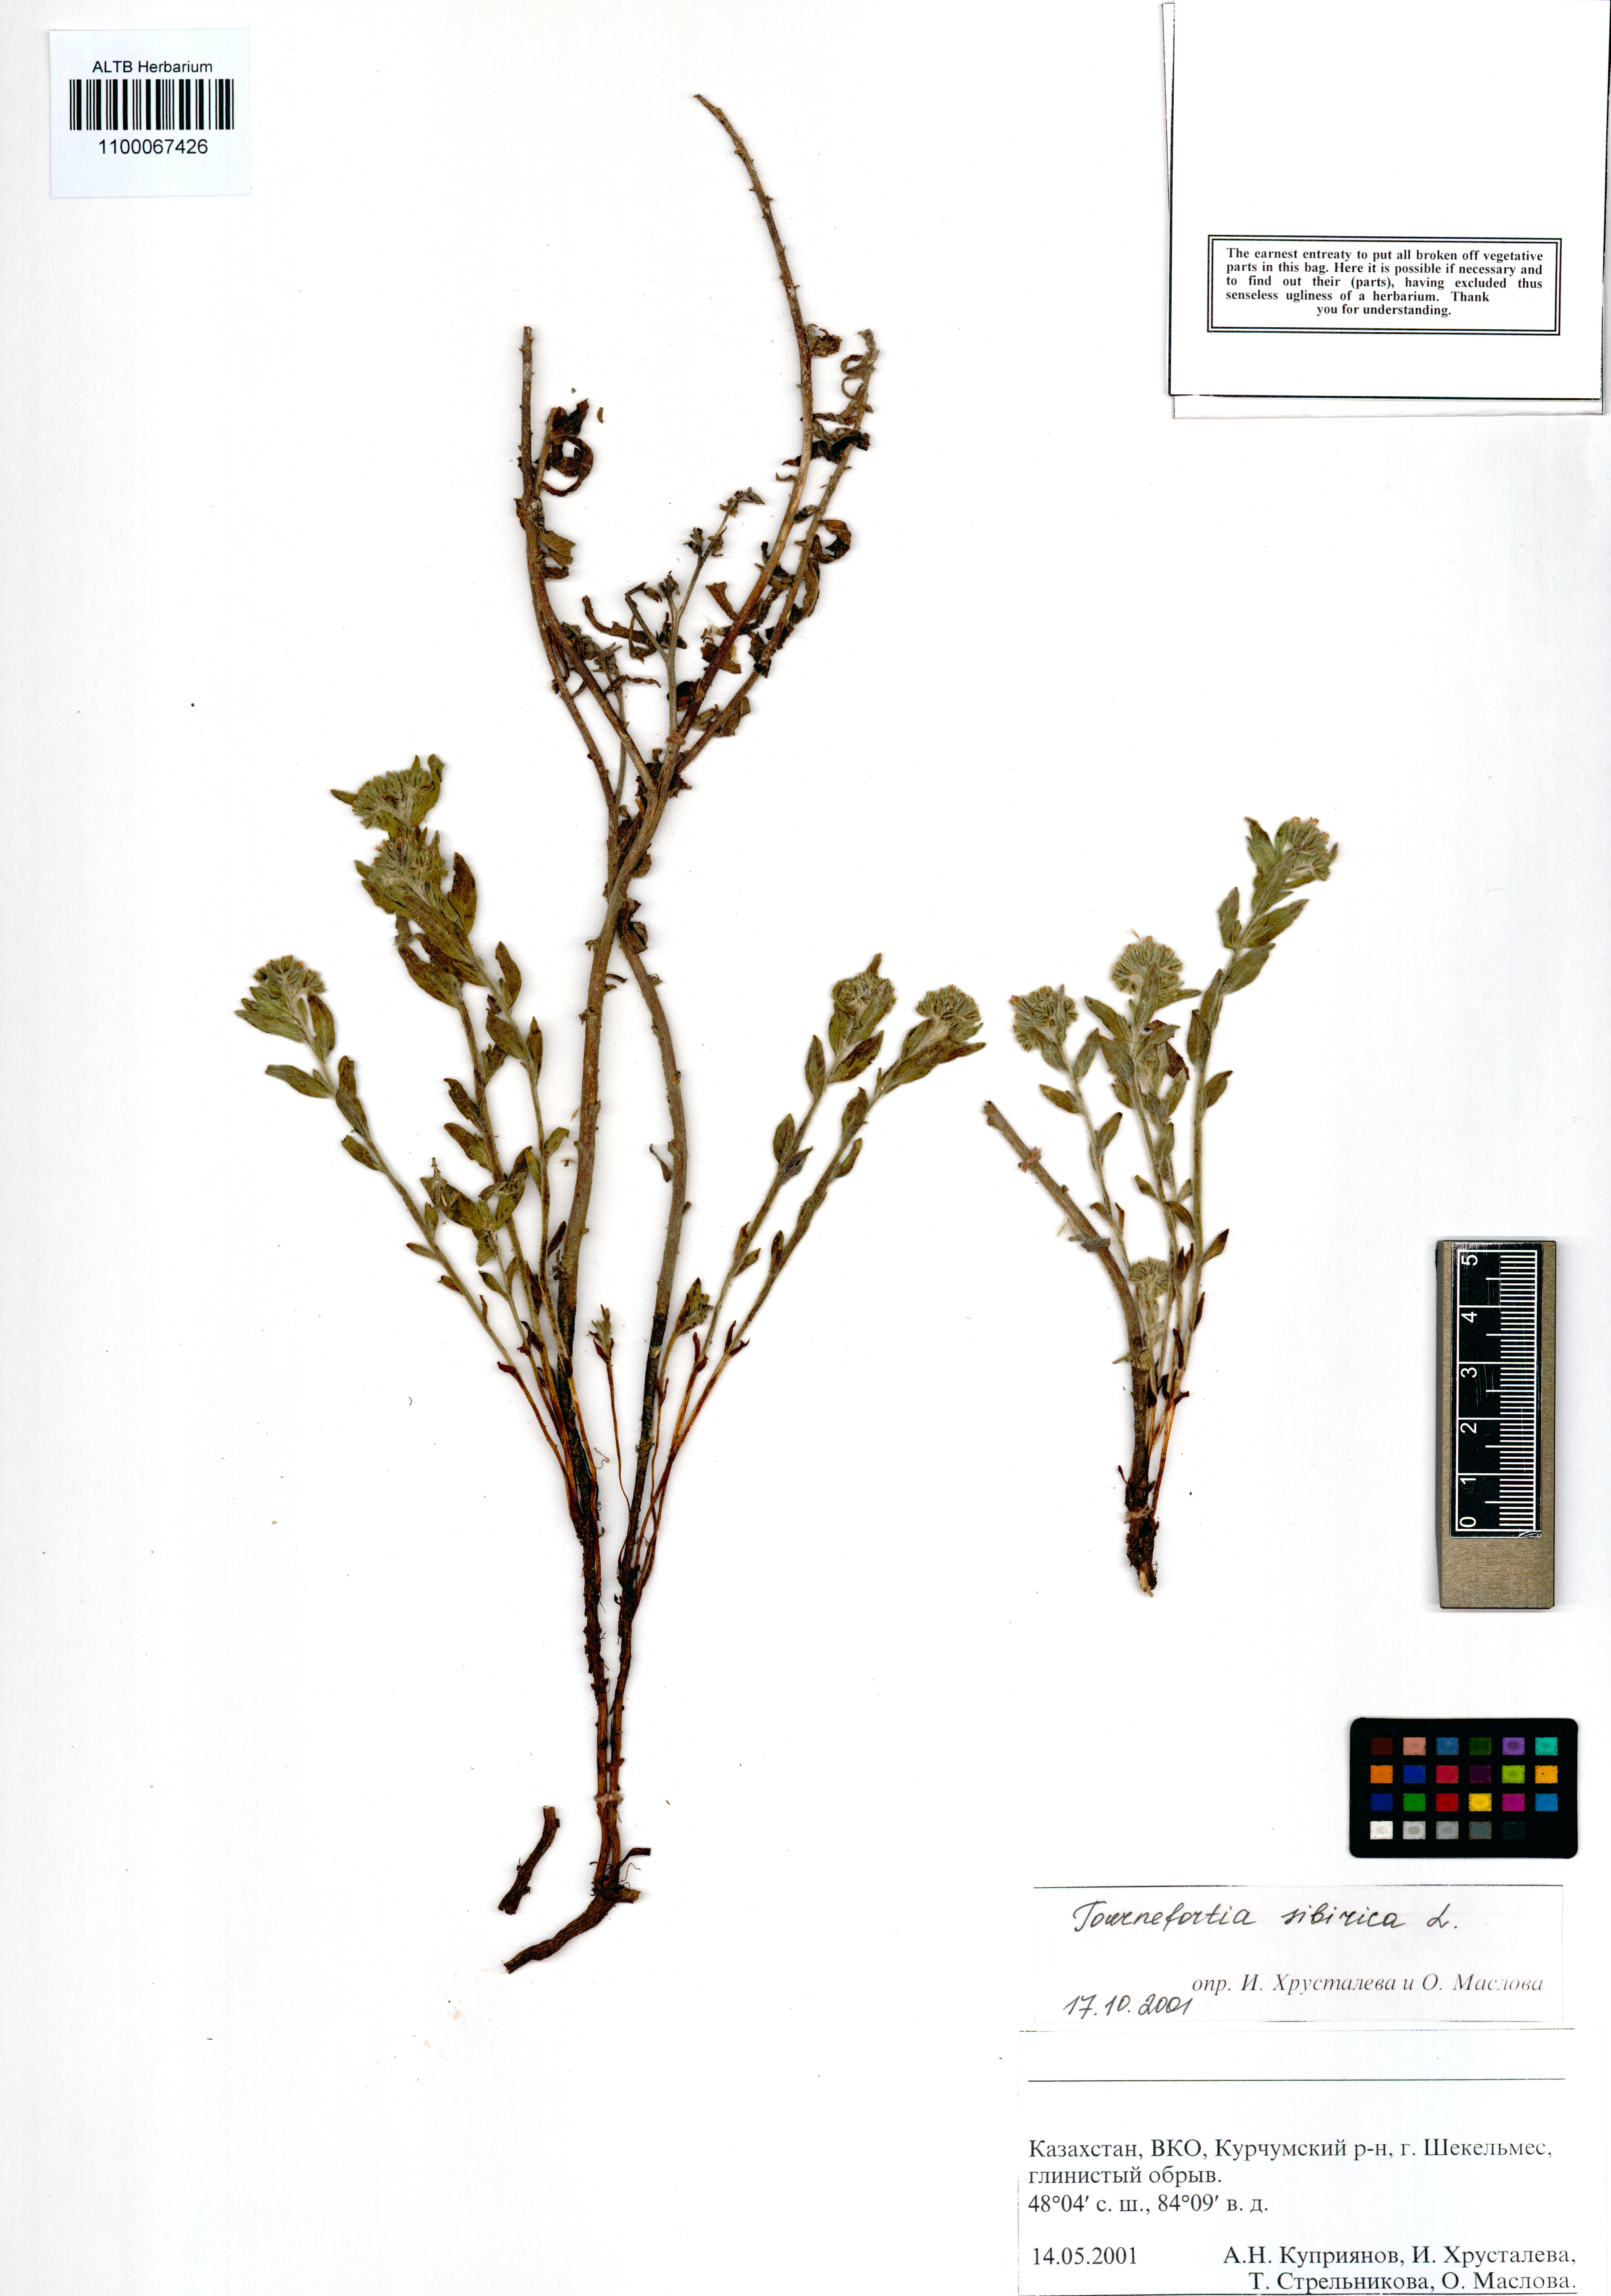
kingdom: Plantae
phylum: Tracheophyta
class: Magnoliopsida
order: Boraginales
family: Heliotropiaceae
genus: Tournefortia
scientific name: Tournefortia sibirica
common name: Siberian sea rosemary
